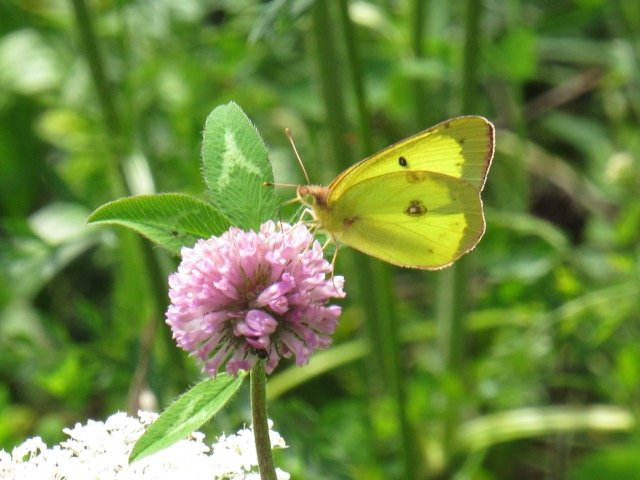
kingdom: Animalia
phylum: Arthropoda
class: Insecta
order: Lepidoptera
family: Pieridae
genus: Colias
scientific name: Colias philodice
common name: Clouded Sulphur
